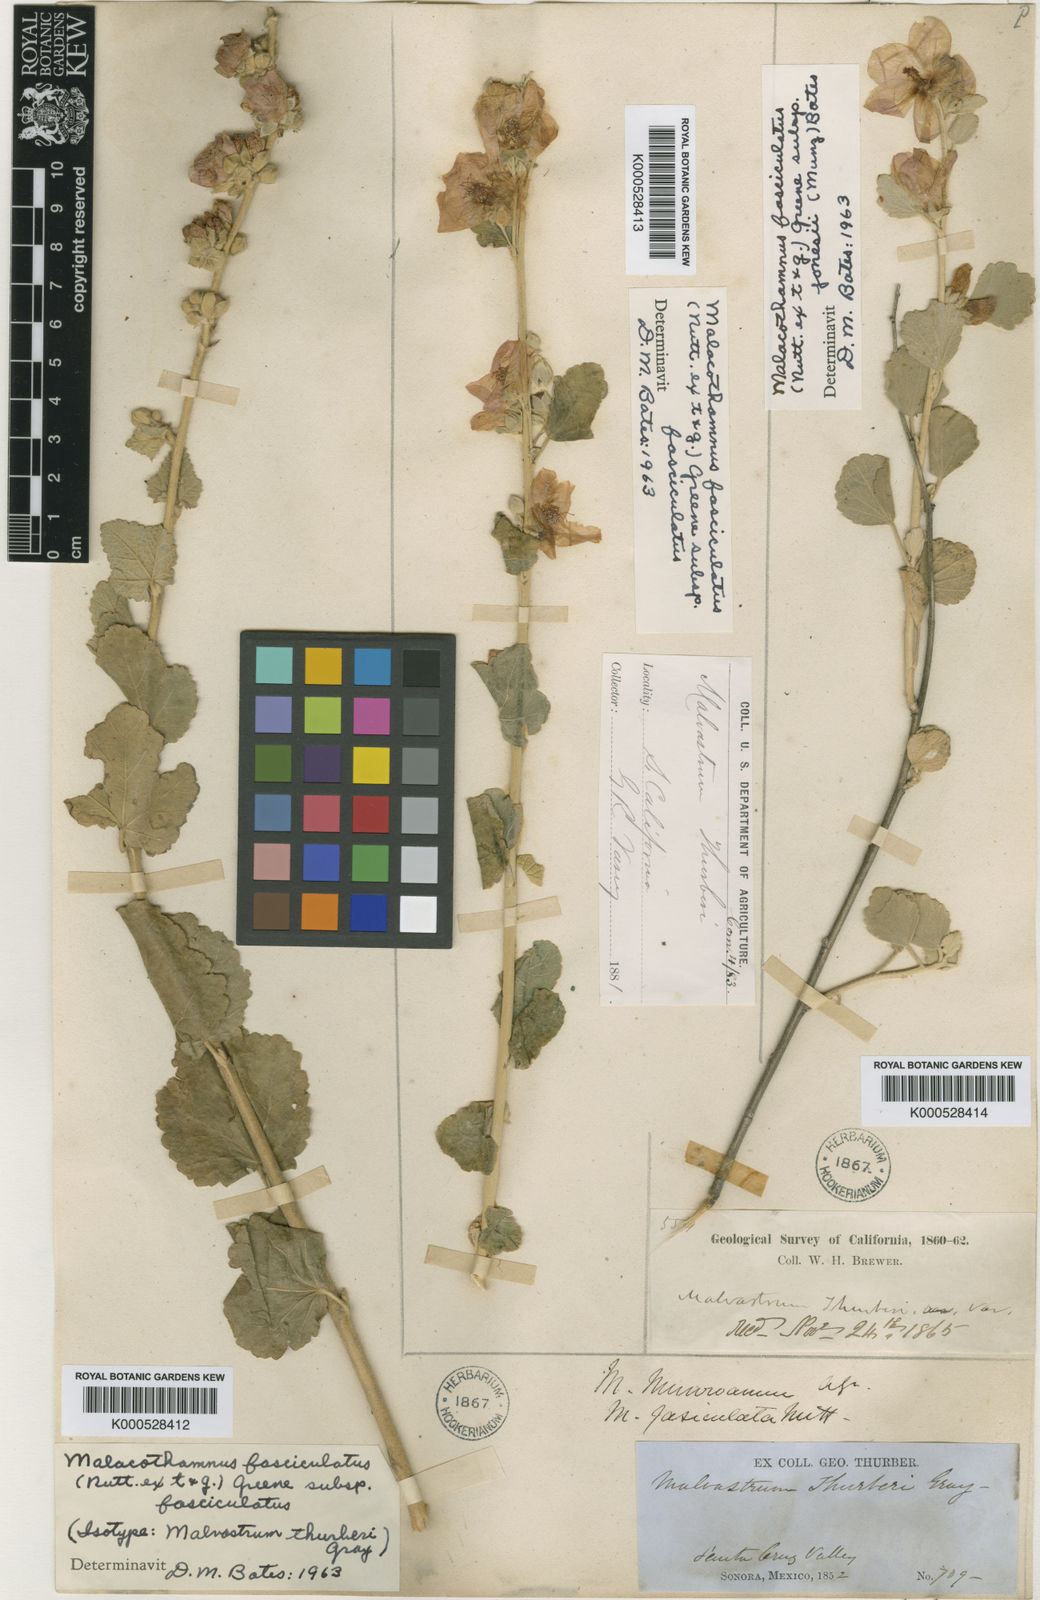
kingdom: Plantae
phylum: Tracheophyta
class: Magnoliopsida
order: Malvales
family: Malvaceae
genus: Malacothamnus
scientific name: Malacothamnus fasciculatus
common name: Sant cruz island bush-mallow
